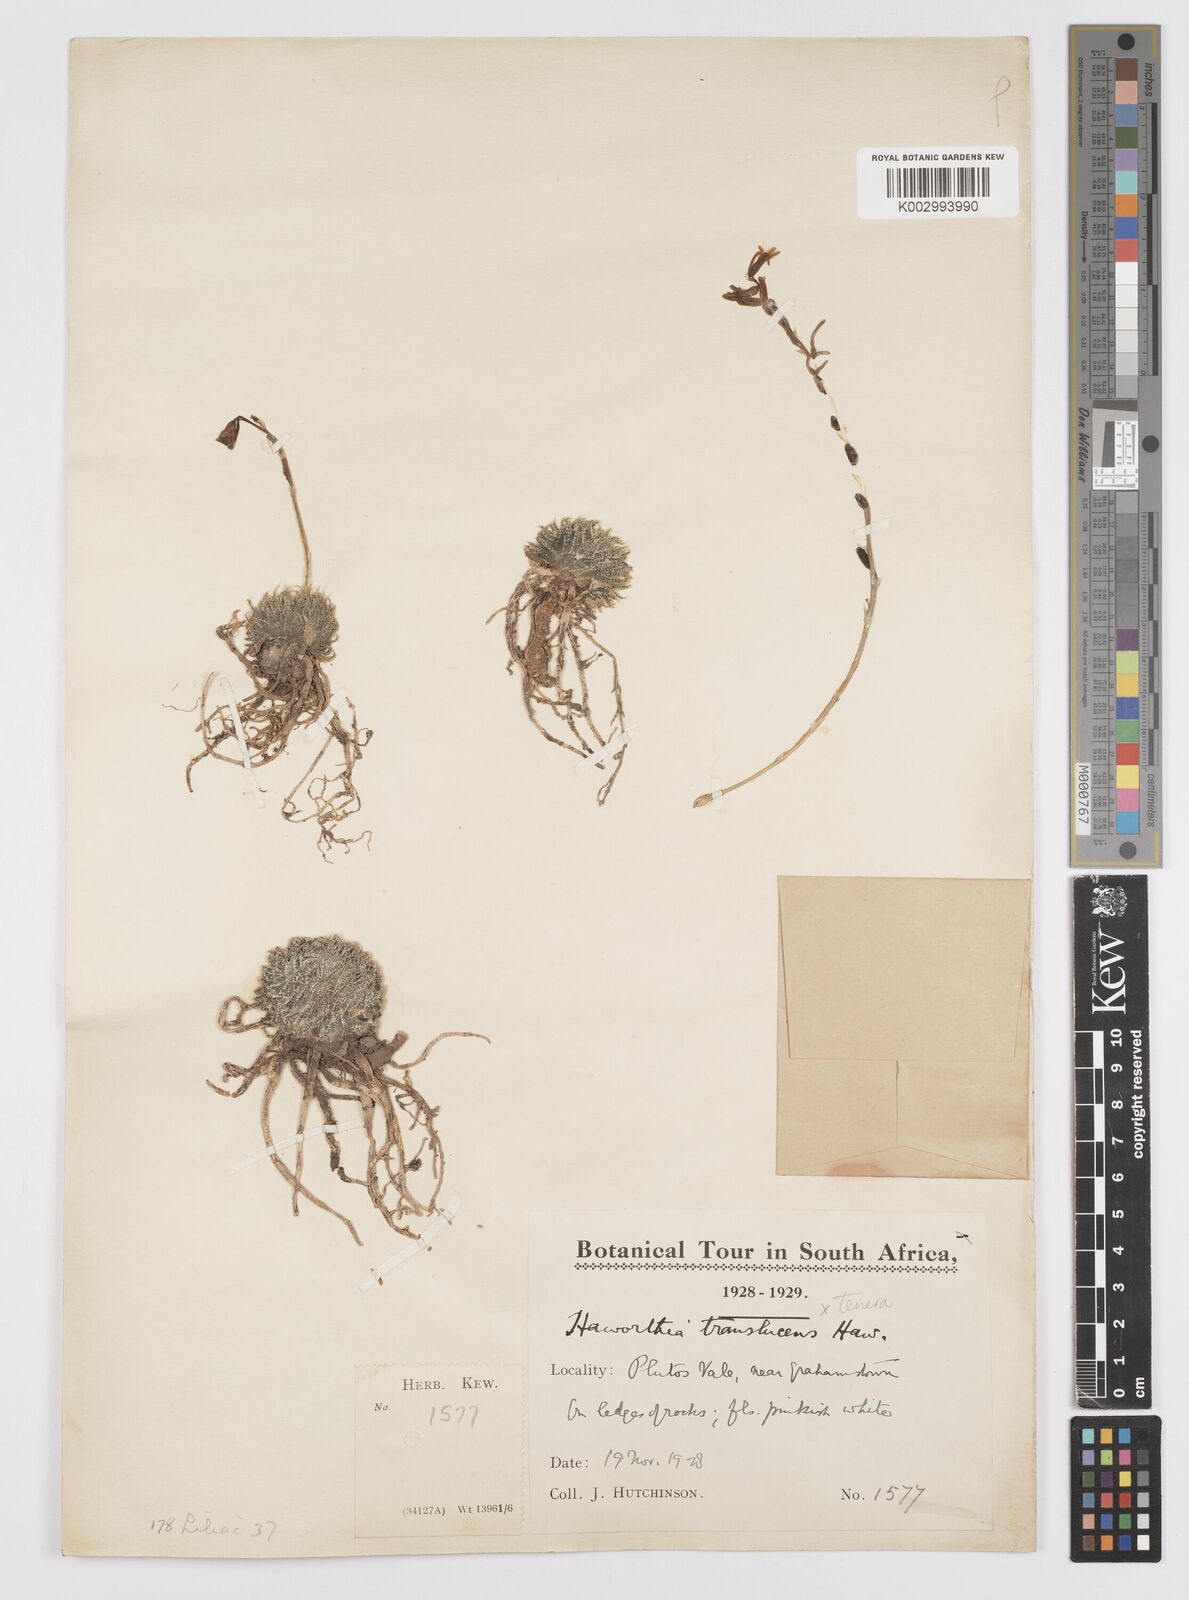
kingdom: Plantae
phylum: Tracheophyta
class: Liliopsida
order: Asparagales
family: Asphodelaceae
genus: Haworthia
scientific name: Haworthia
